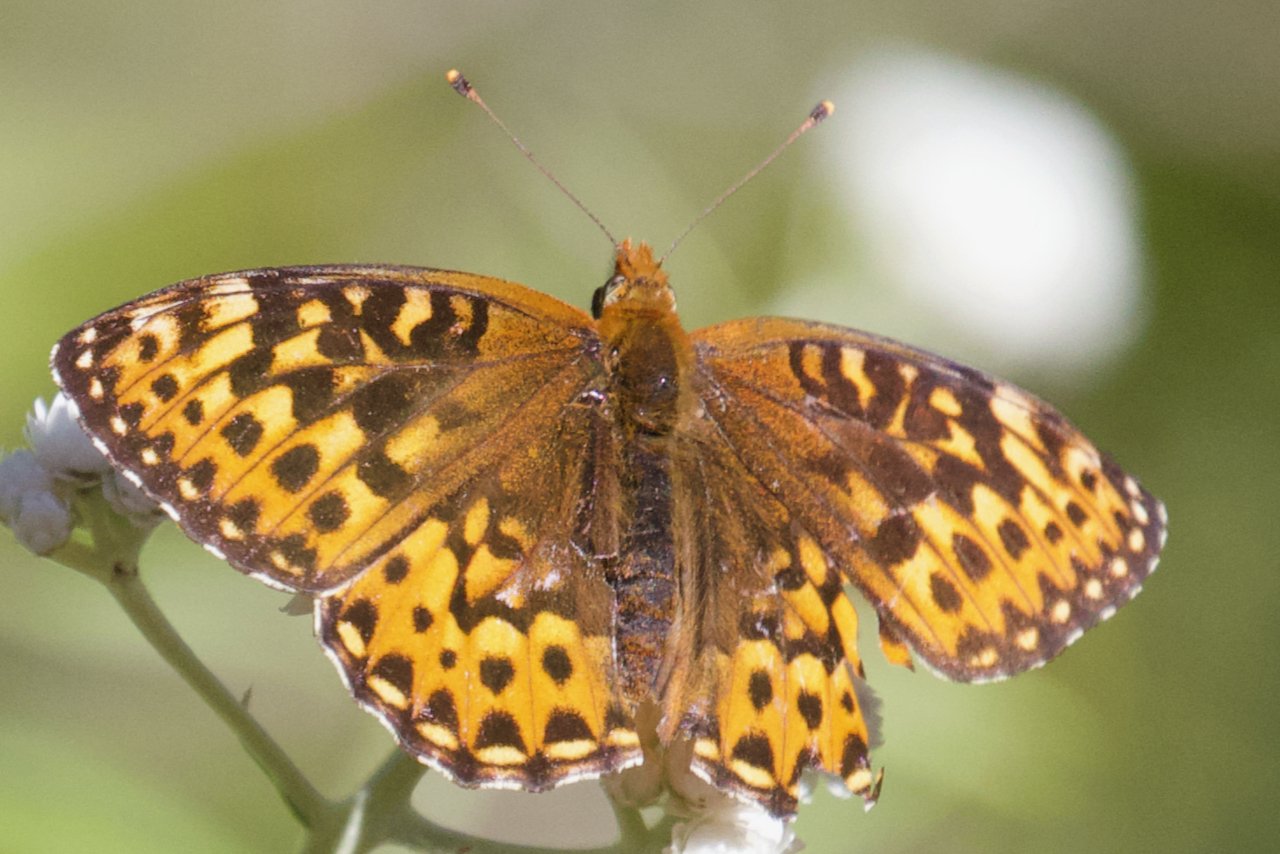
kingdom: Animalia
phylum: Arthropoda
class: Insecta
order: Lepidoptera
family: Nymphalidae
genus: Eresia
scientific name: Eresia aveyrona
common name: Mylitta Crescent
